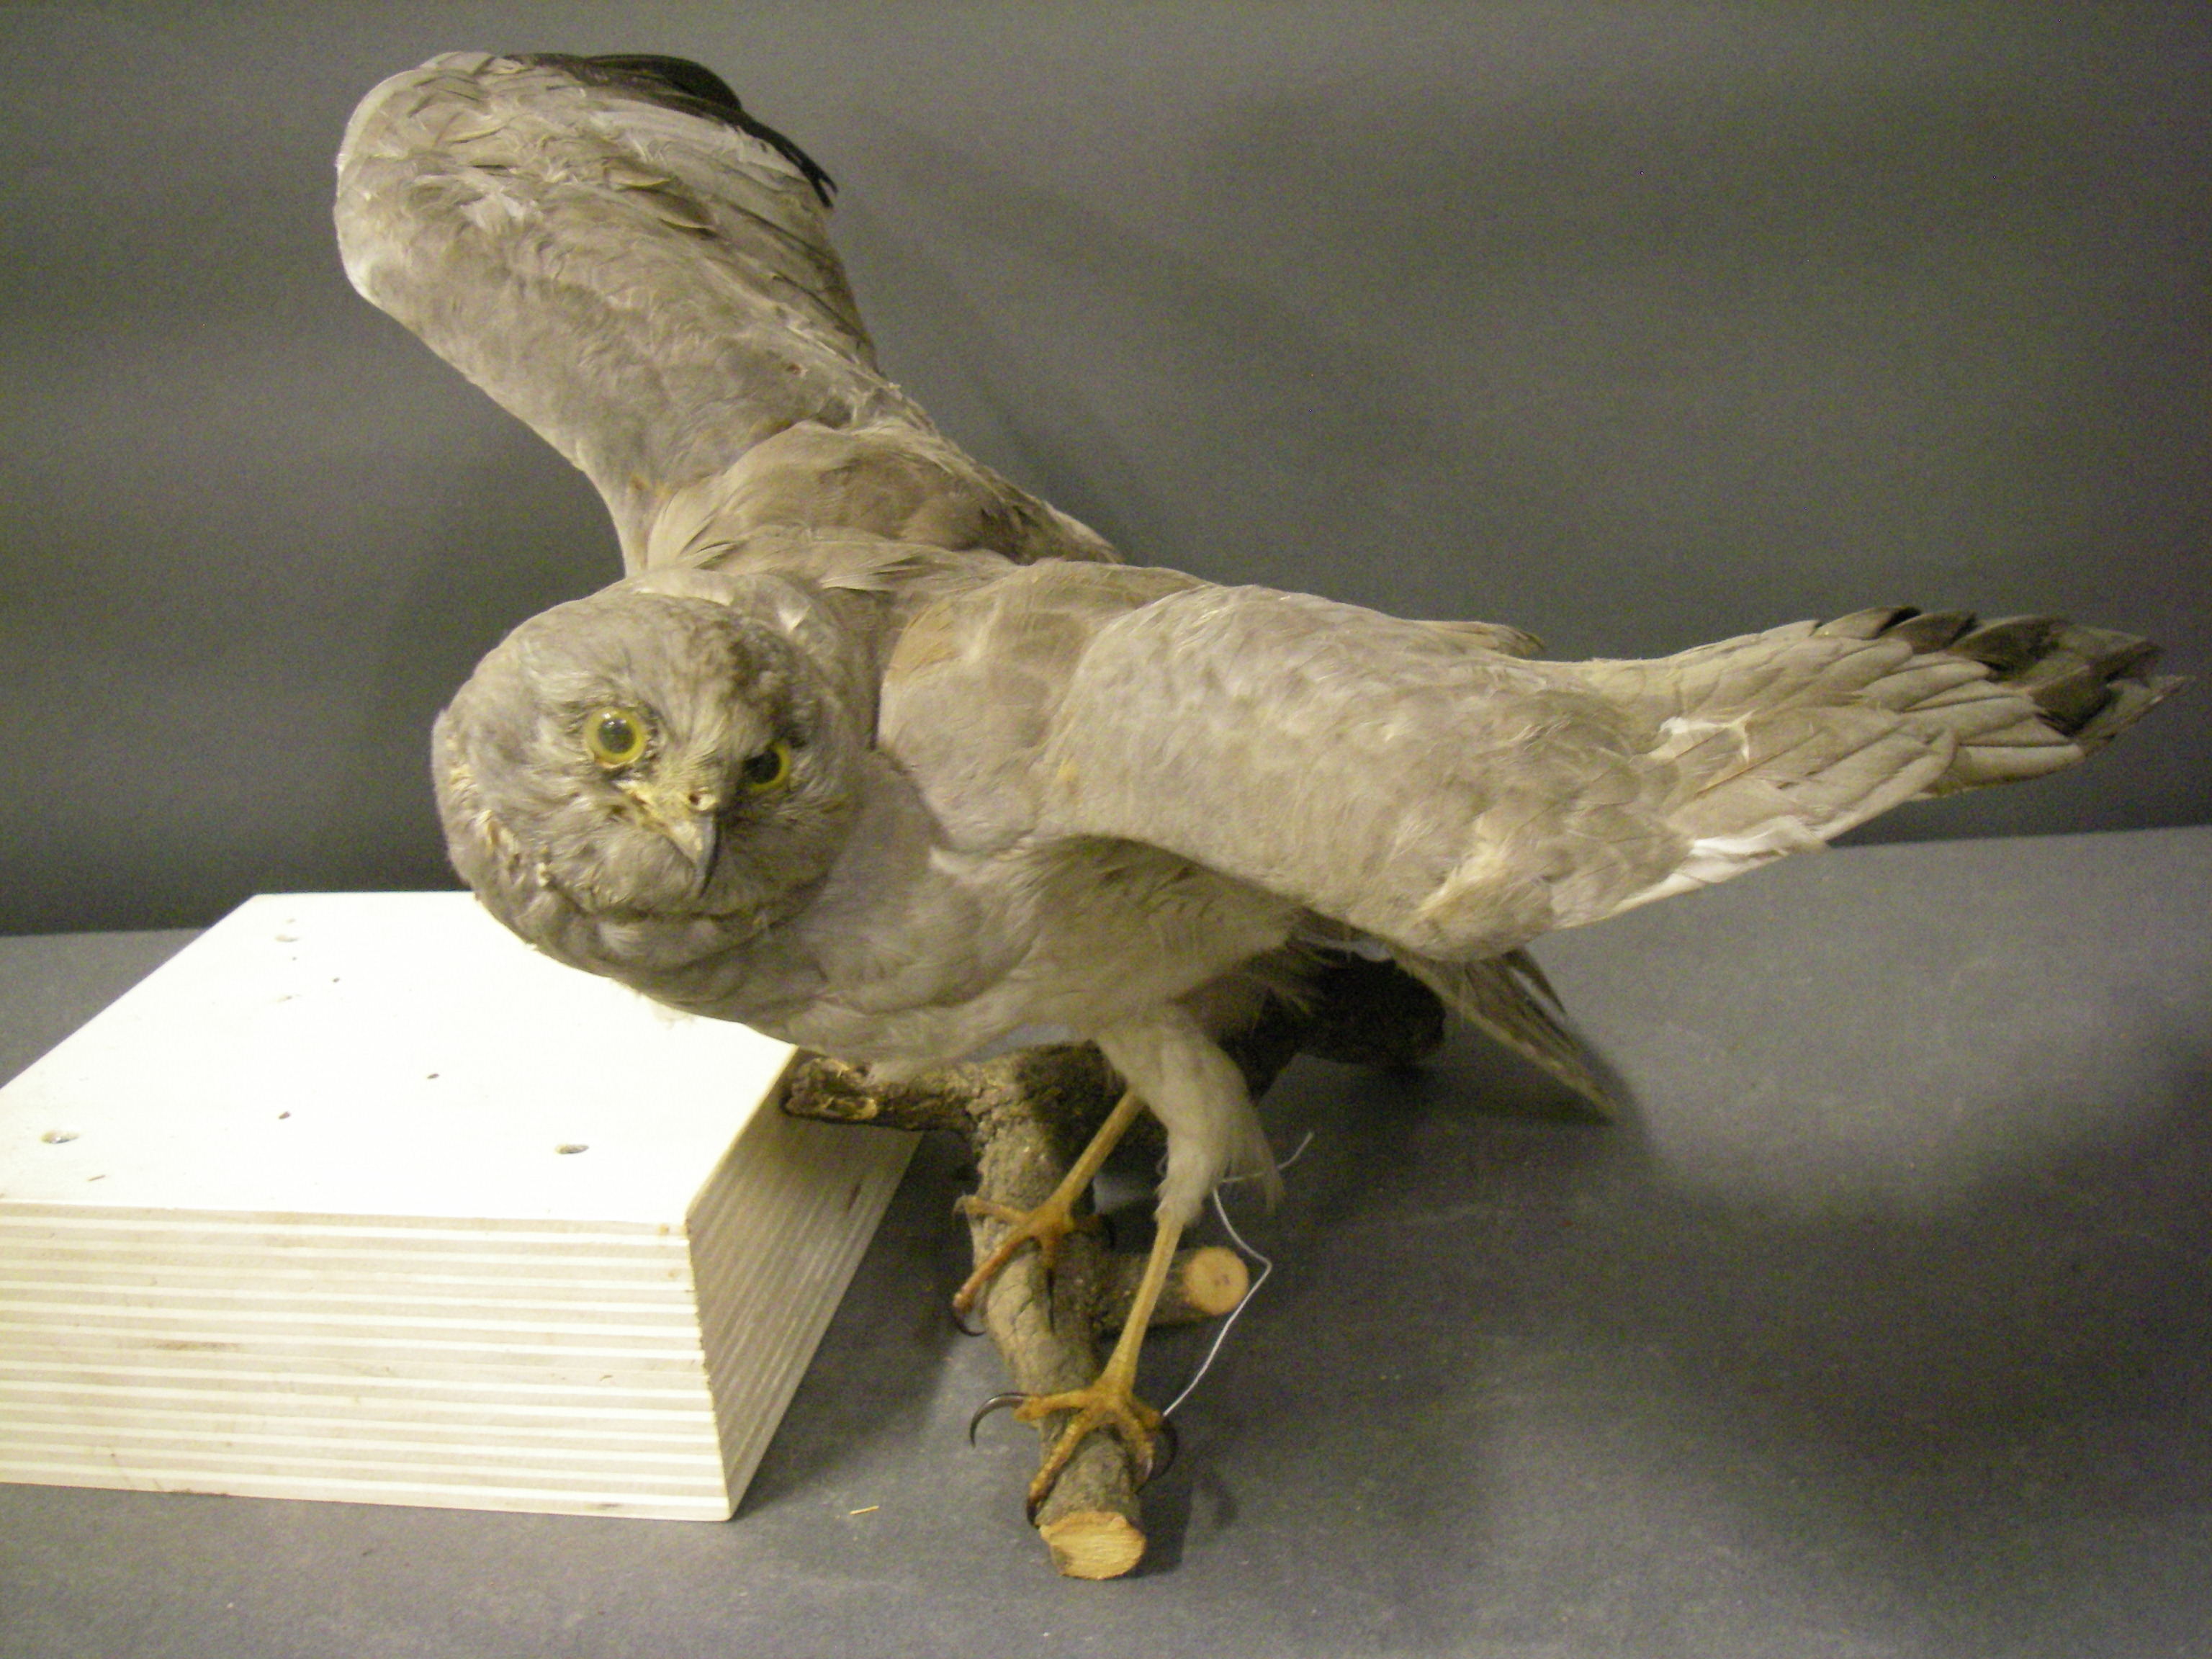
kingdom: Animalia
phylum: Chordata
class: Aves
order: Accipitriformes
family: Accipitridae
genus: Circus
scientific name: Circus cyaneus
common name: Hen harrier
